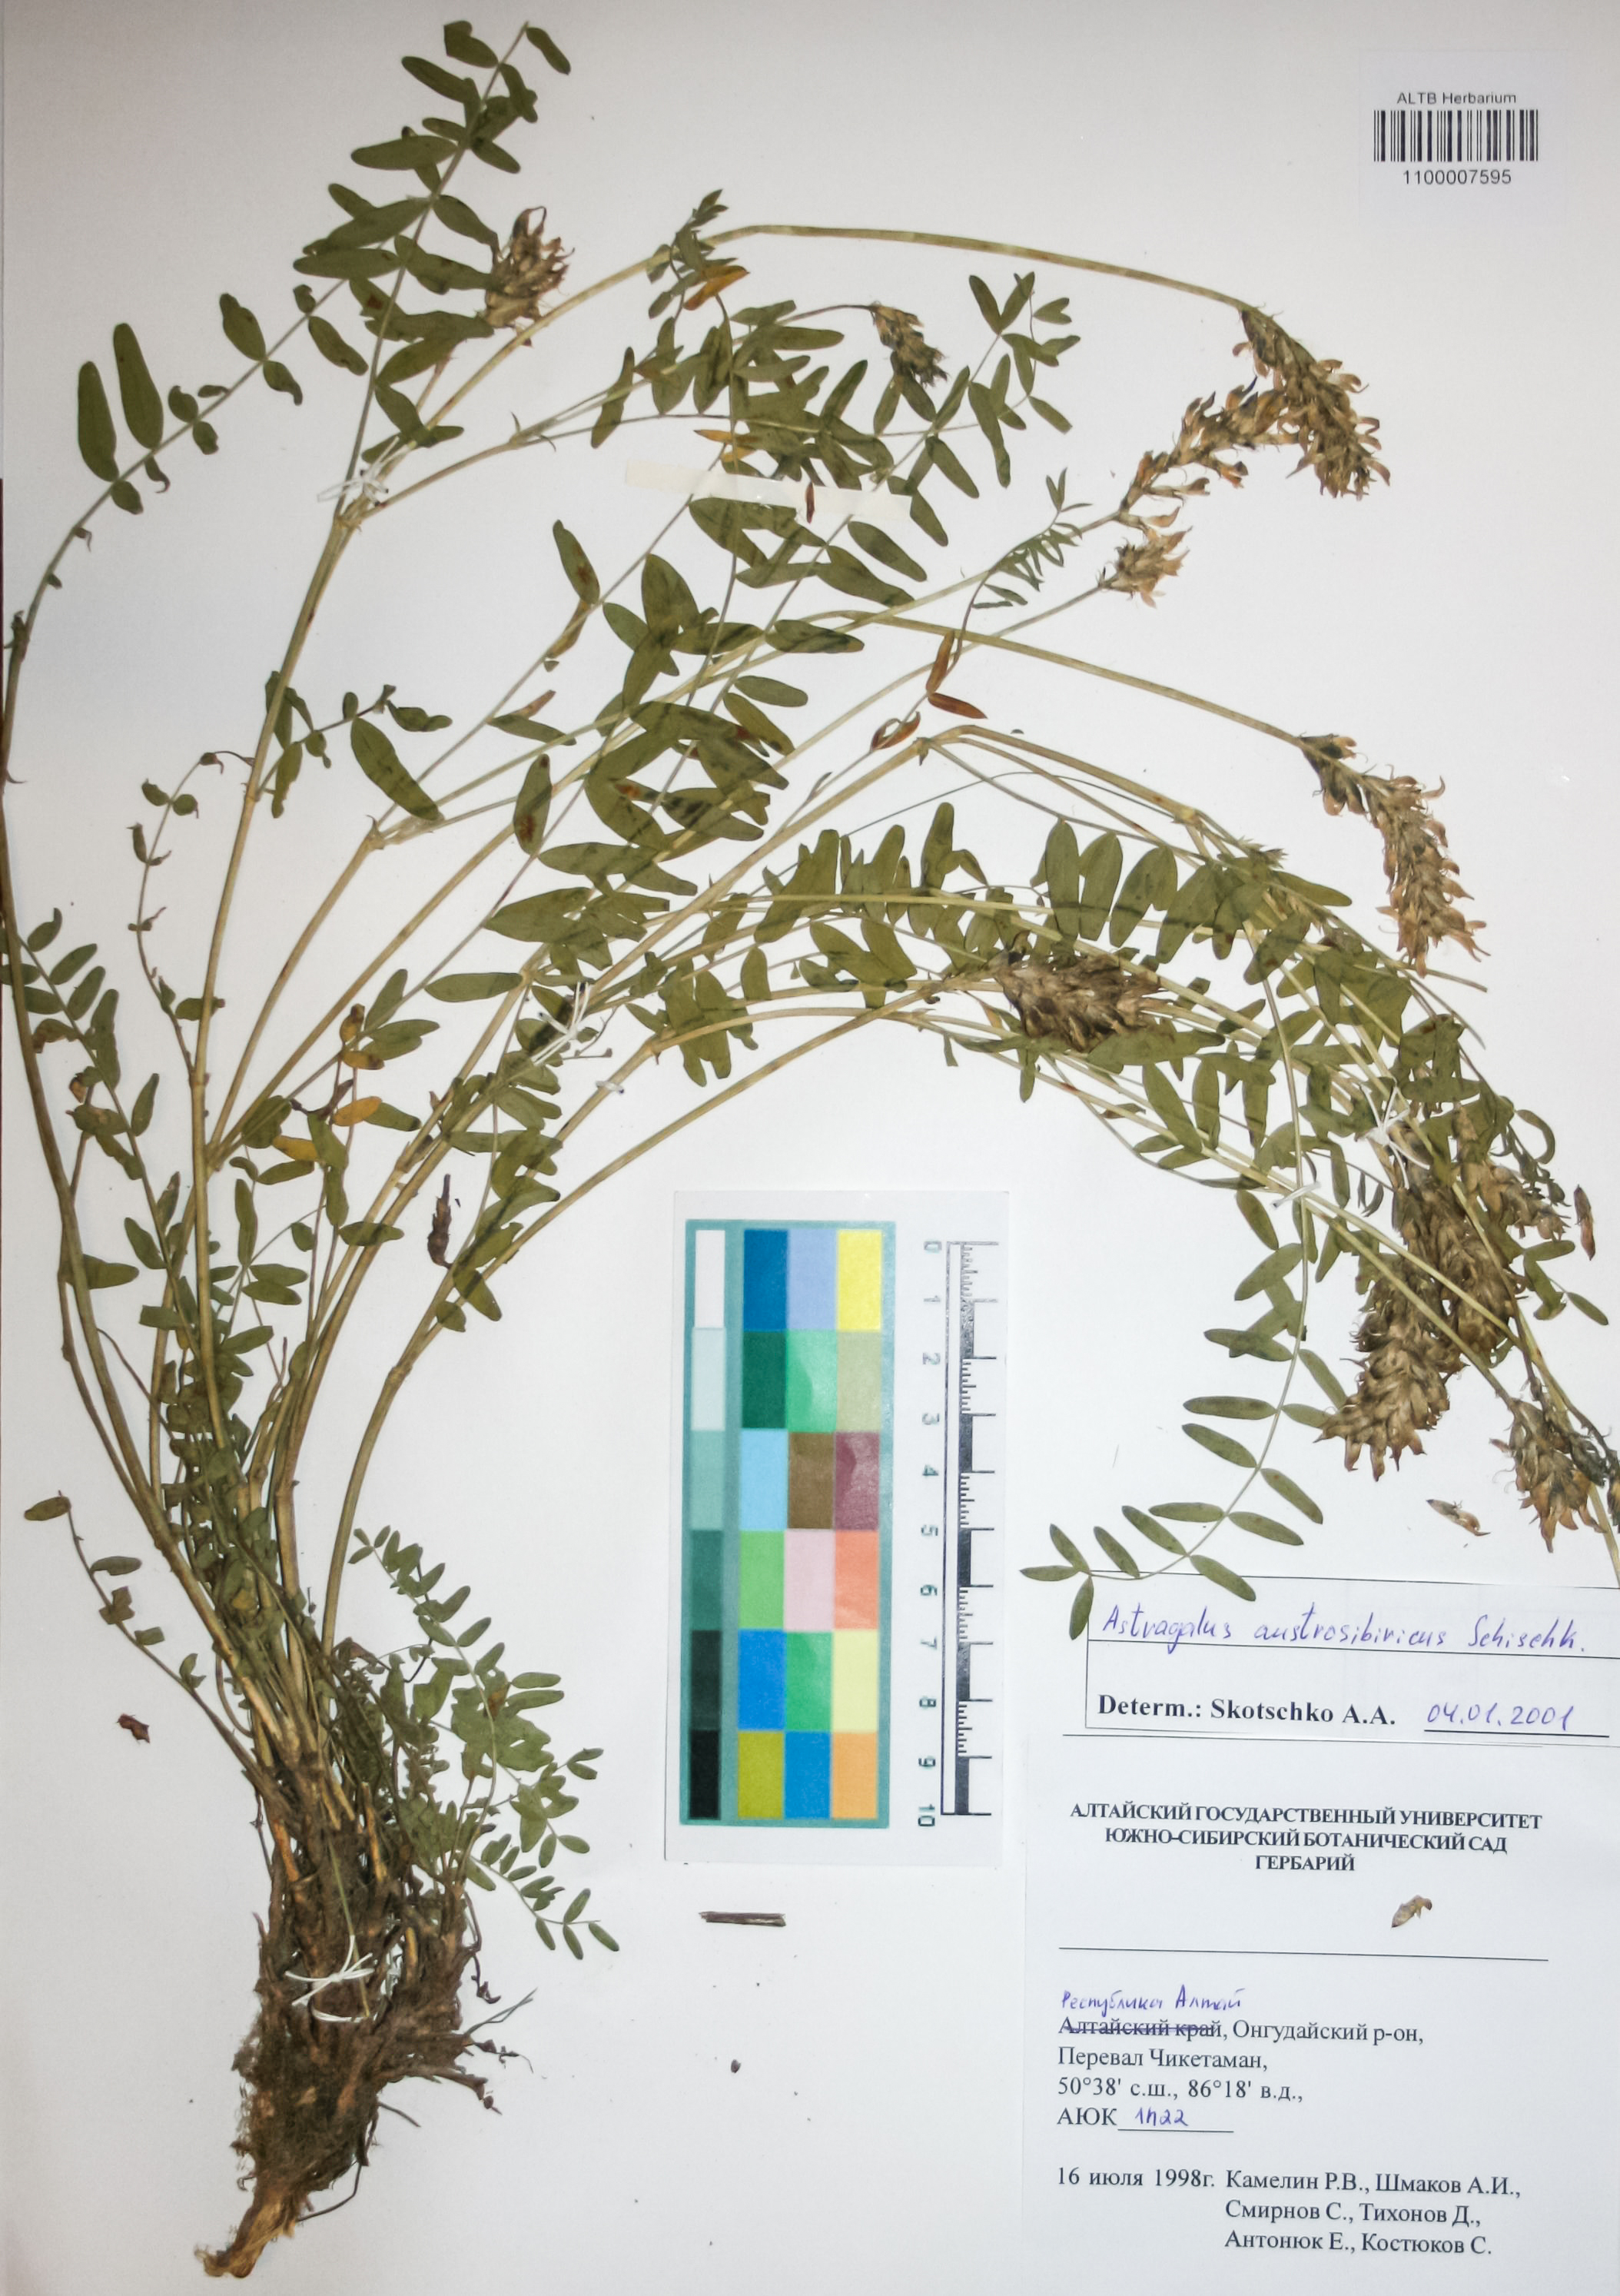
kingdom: Plantae
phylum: Tracheophyta
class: Magnoliopsida
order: Fabales
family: Fabaceae
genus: Astragalus
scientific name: Astragalus
